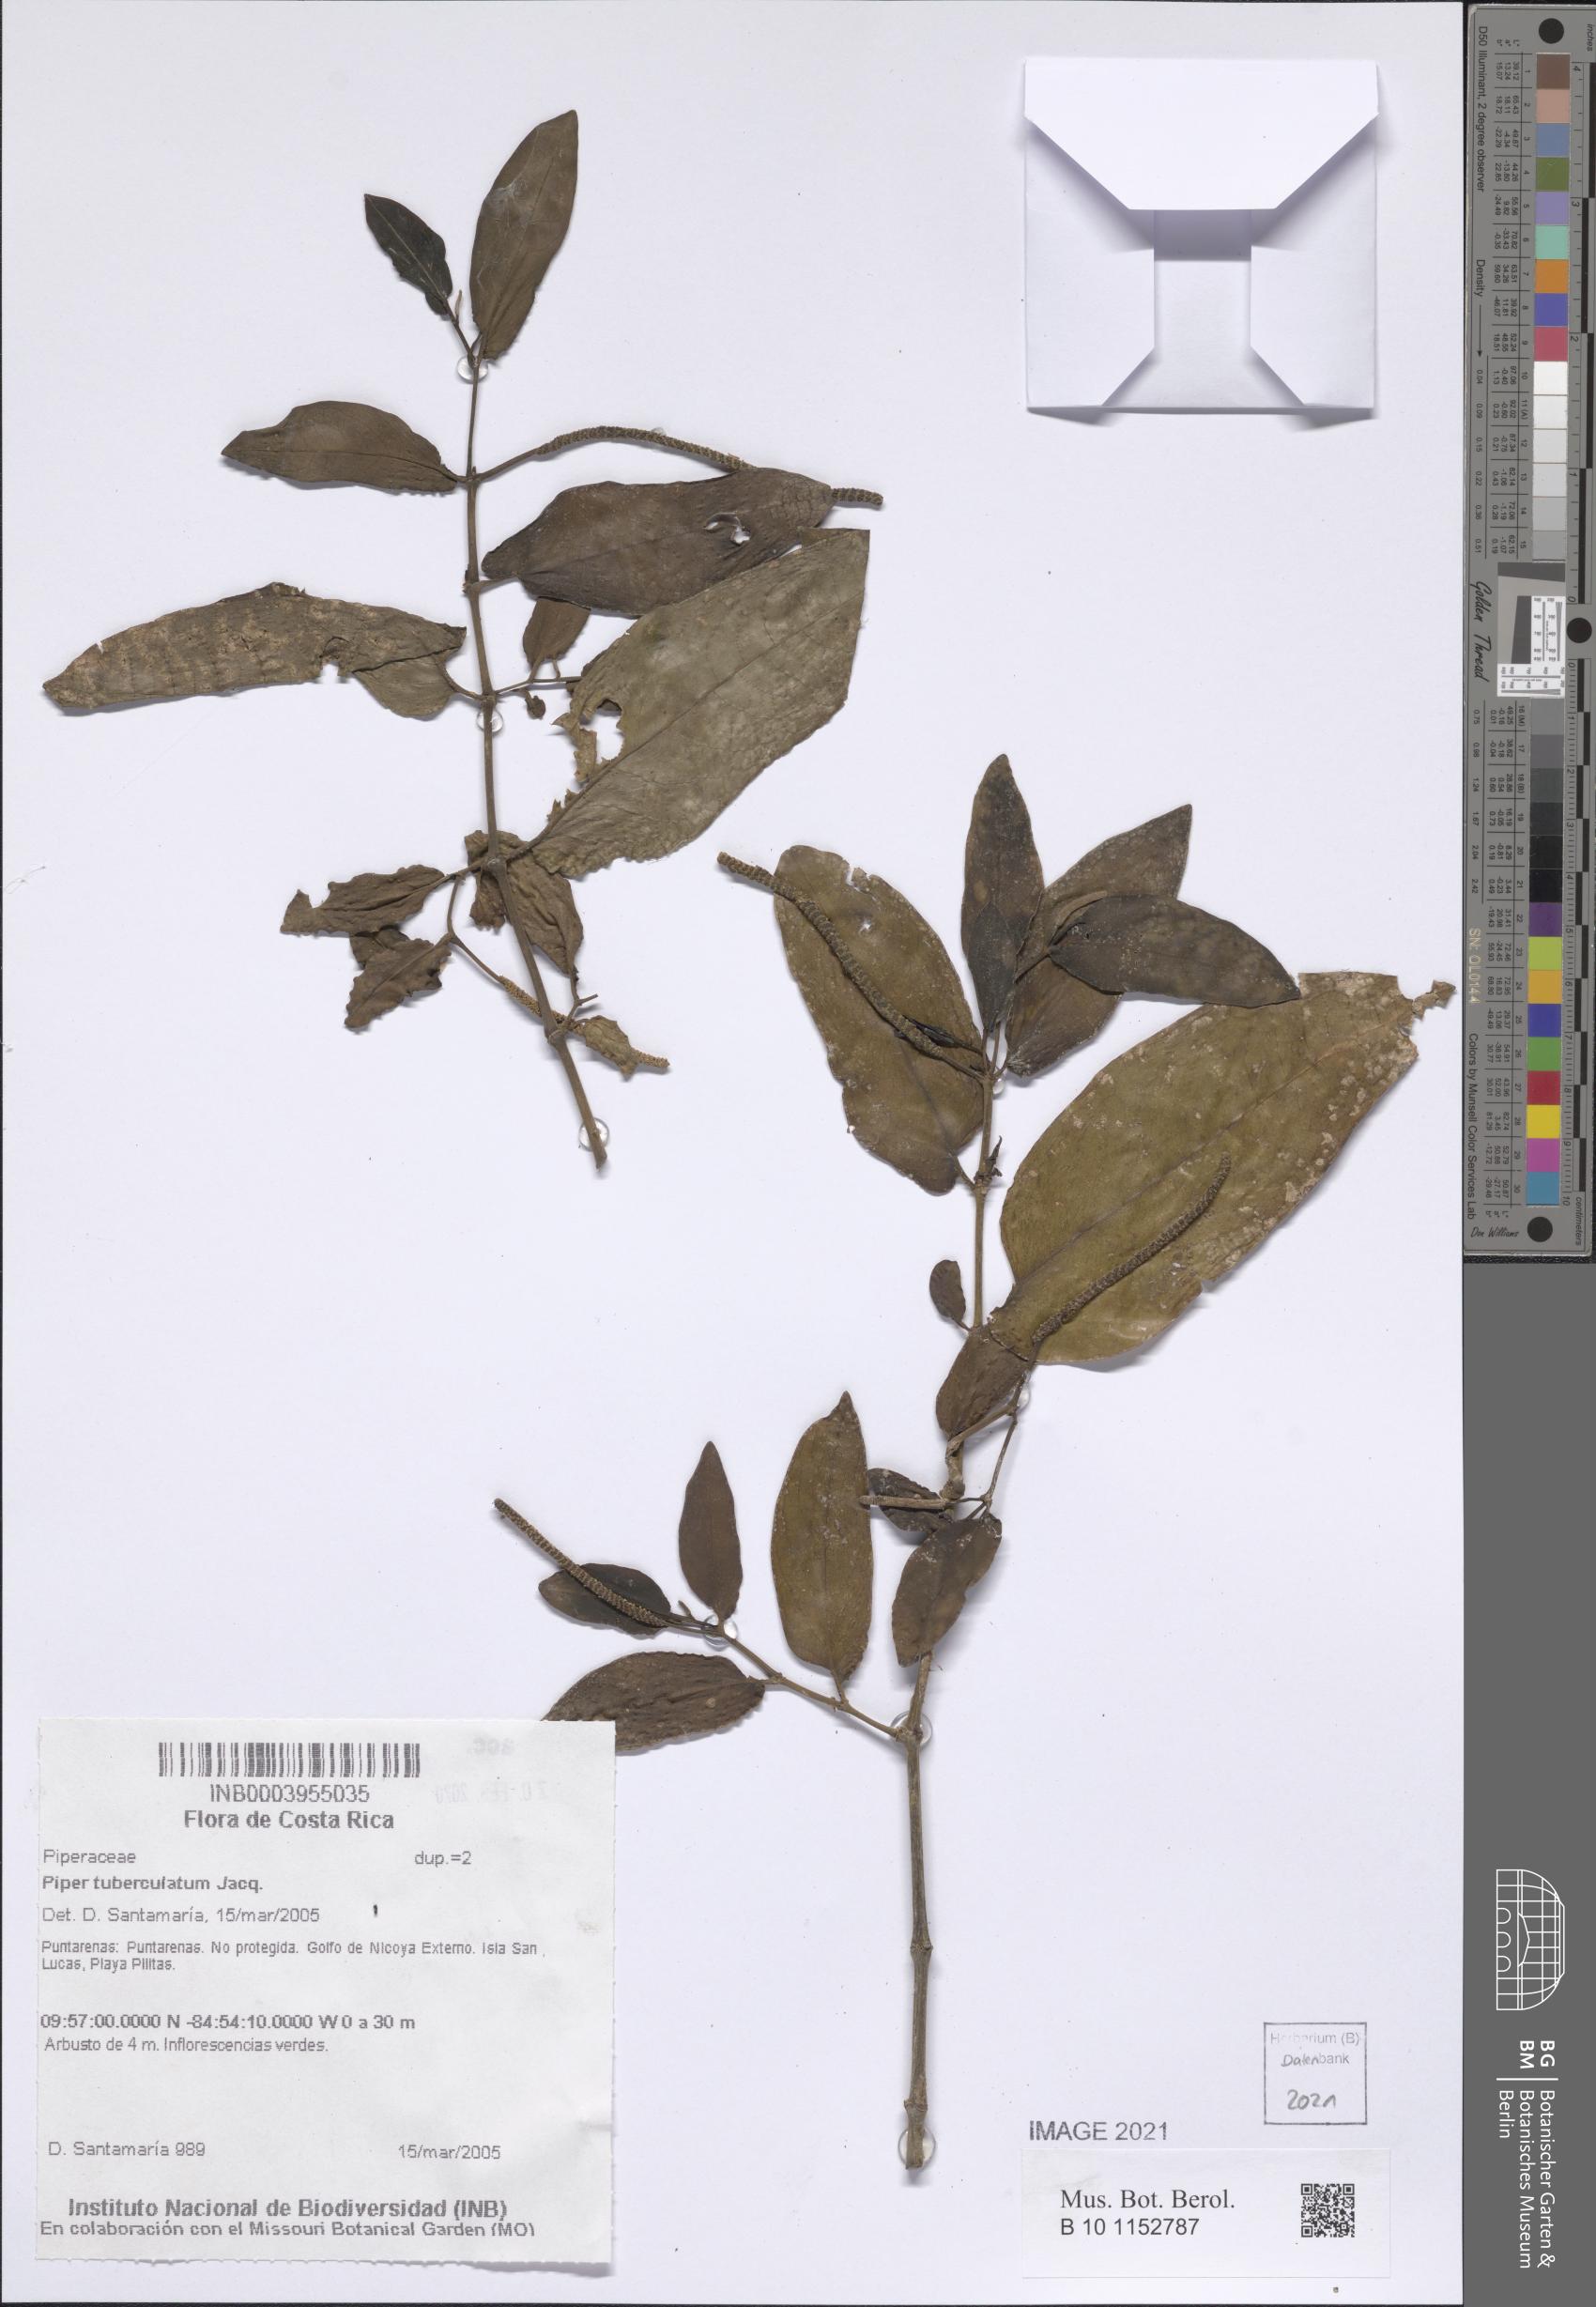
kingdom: Plantae
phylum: Tracheophyta
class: Magnoliopsida
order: Piperales
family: Piperaceae
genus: Piper
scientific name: Piper tuberculatum
